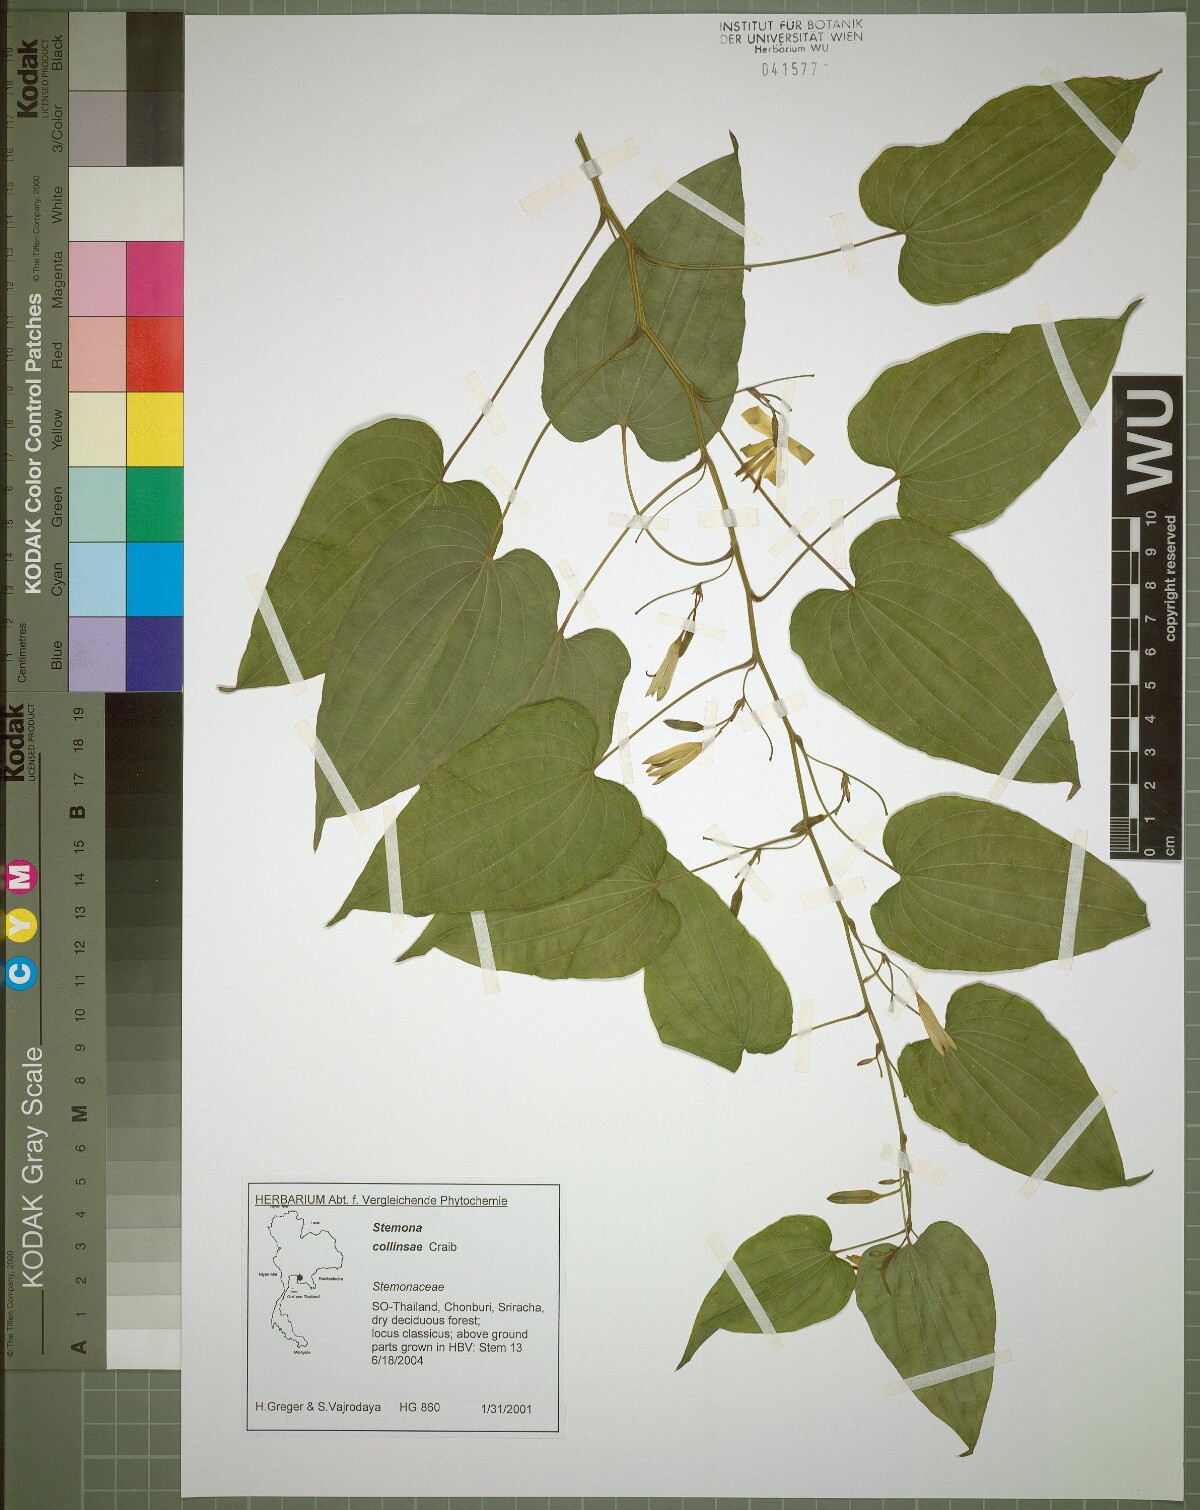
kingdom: Plantae
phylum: Tracheophyta
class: Liliopsida
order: Pandanales
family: Stemonaceae
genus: Stemona
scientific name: Stemona collinsiae
